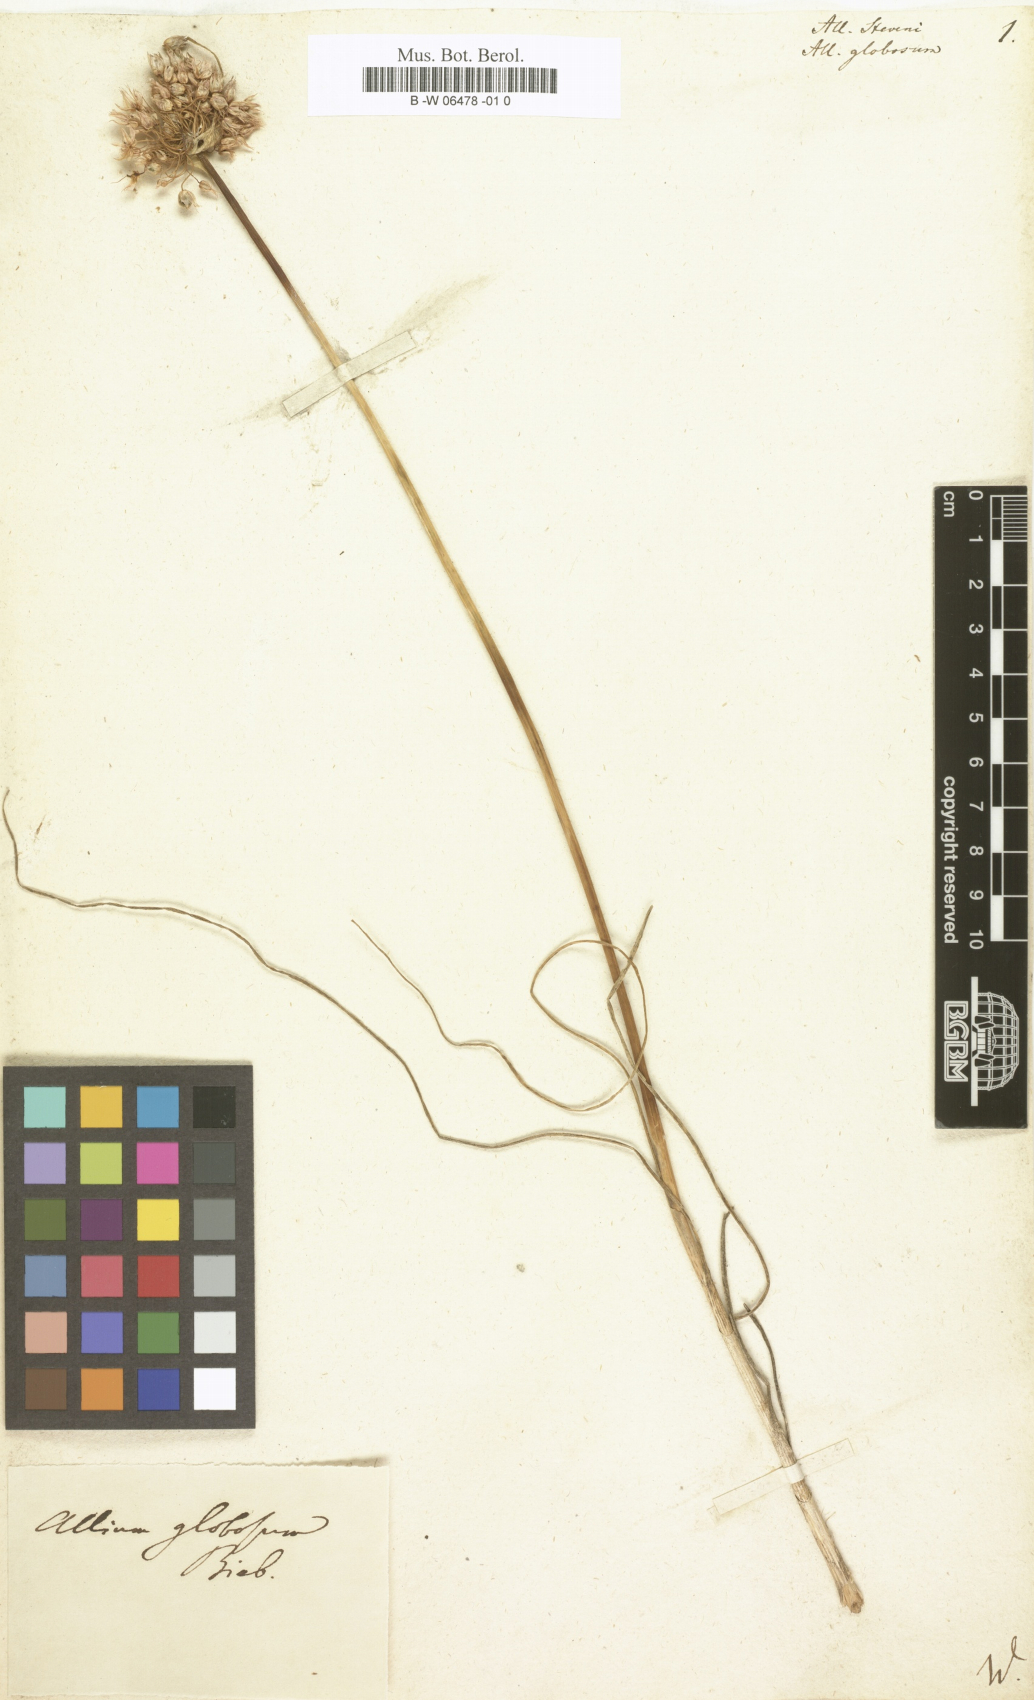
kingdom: Plantae
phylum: Tracheophyta
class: Liliopsida
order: Asparagales
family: Amaryllidaceae
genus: Allium
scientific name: Allium saxatile
